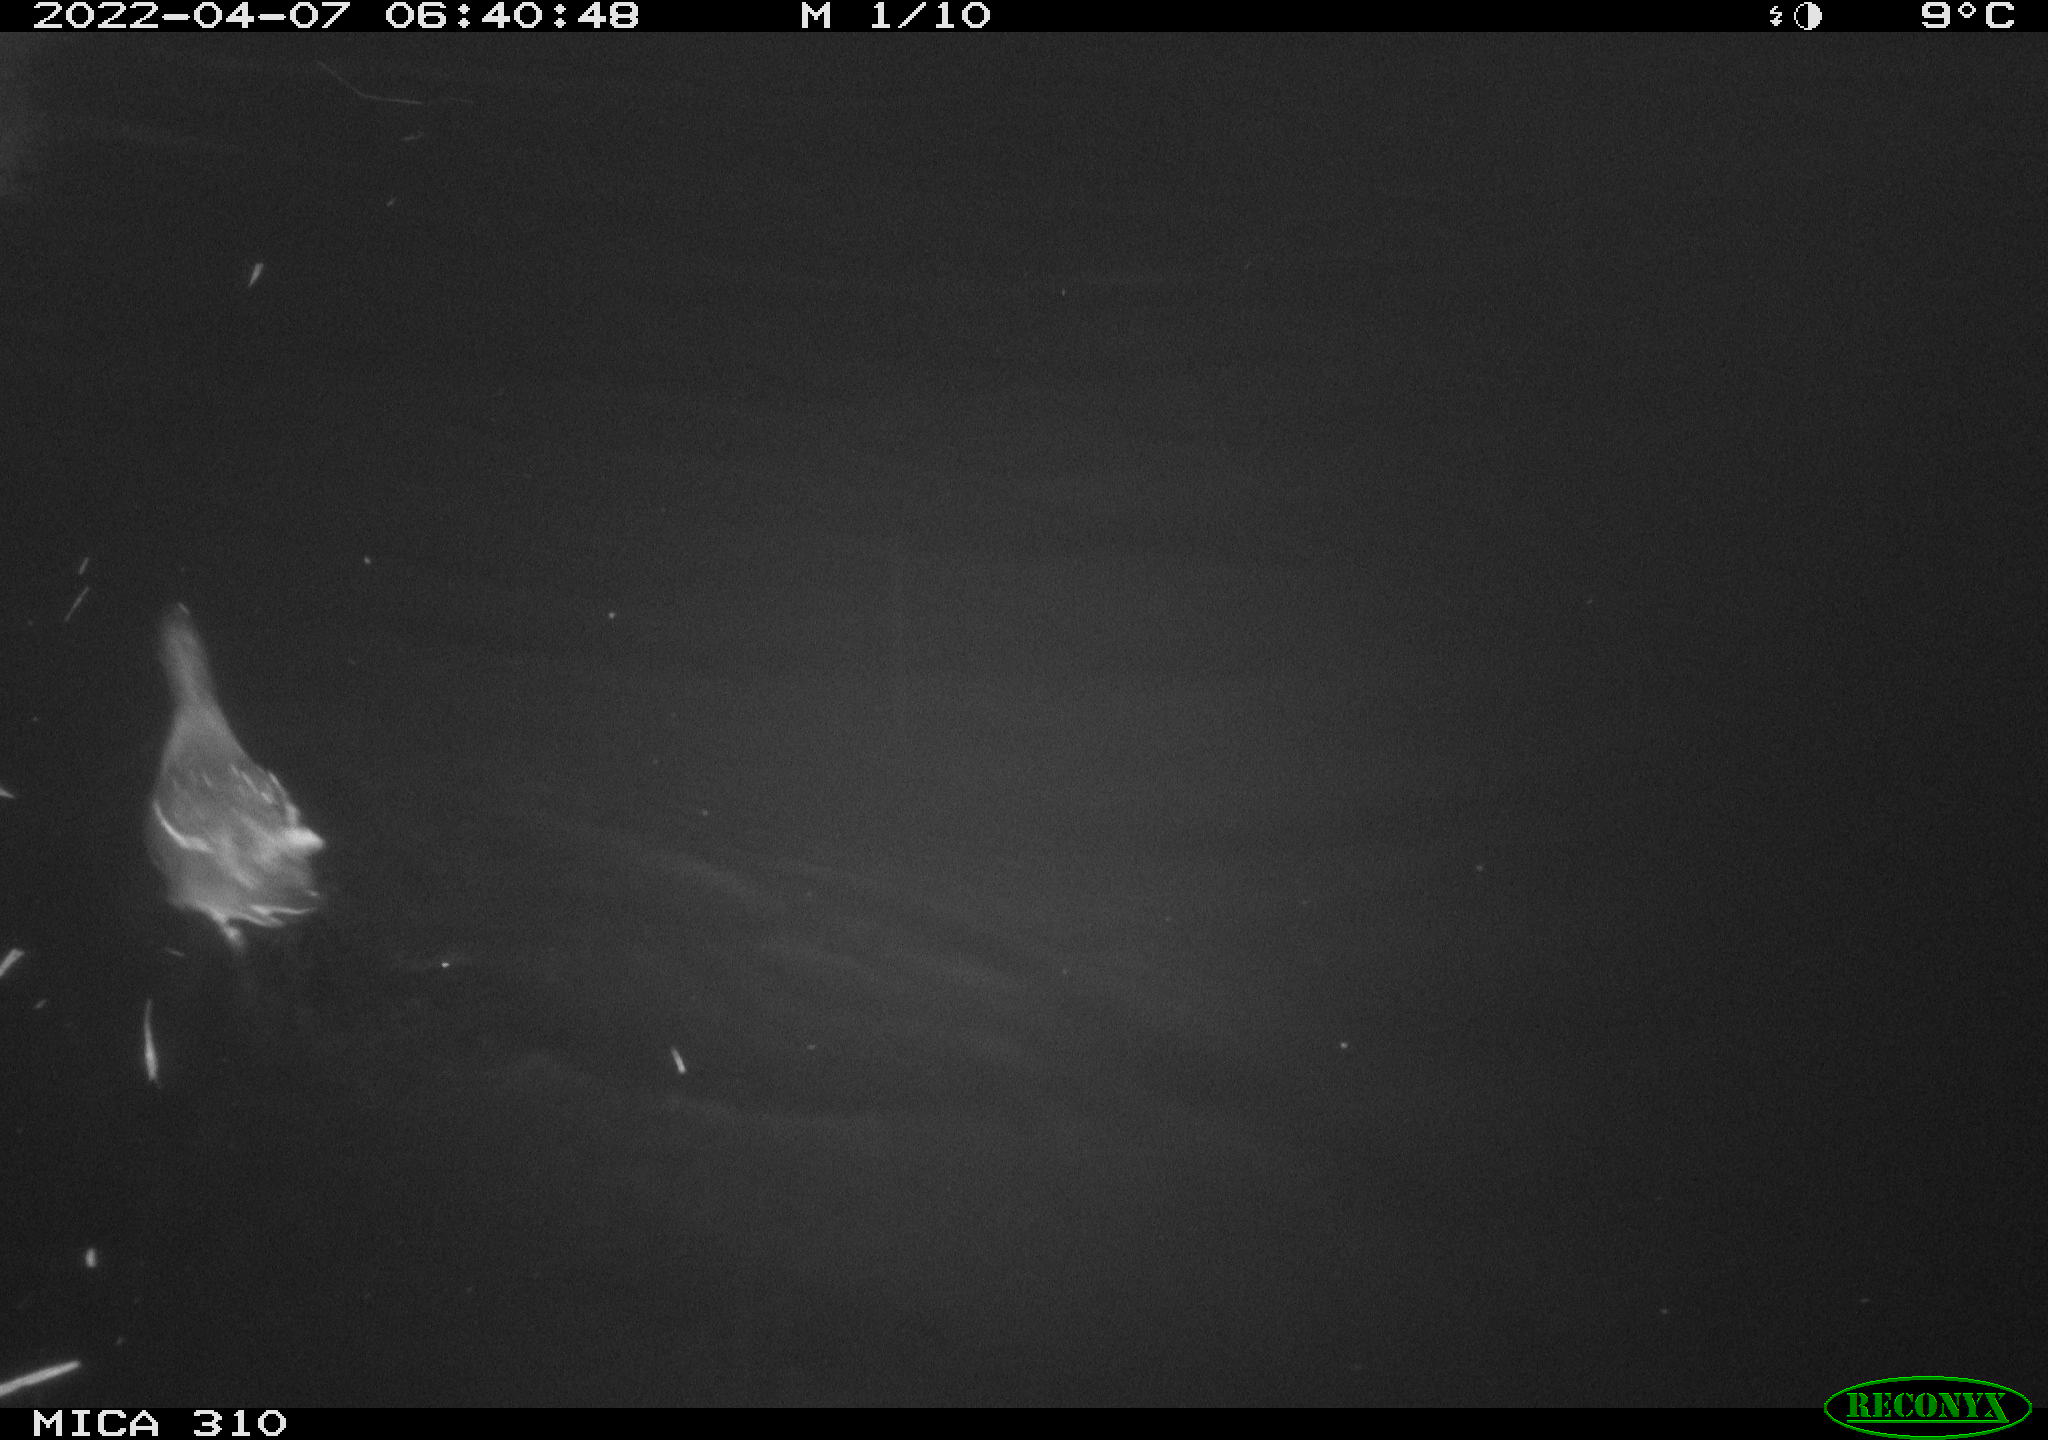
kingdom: Animalia
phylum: Chordata
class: Aves
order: Gruiformes
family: Rallidae
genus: Gallinula
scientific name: Gallinula chloropus
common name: Common moorhen
